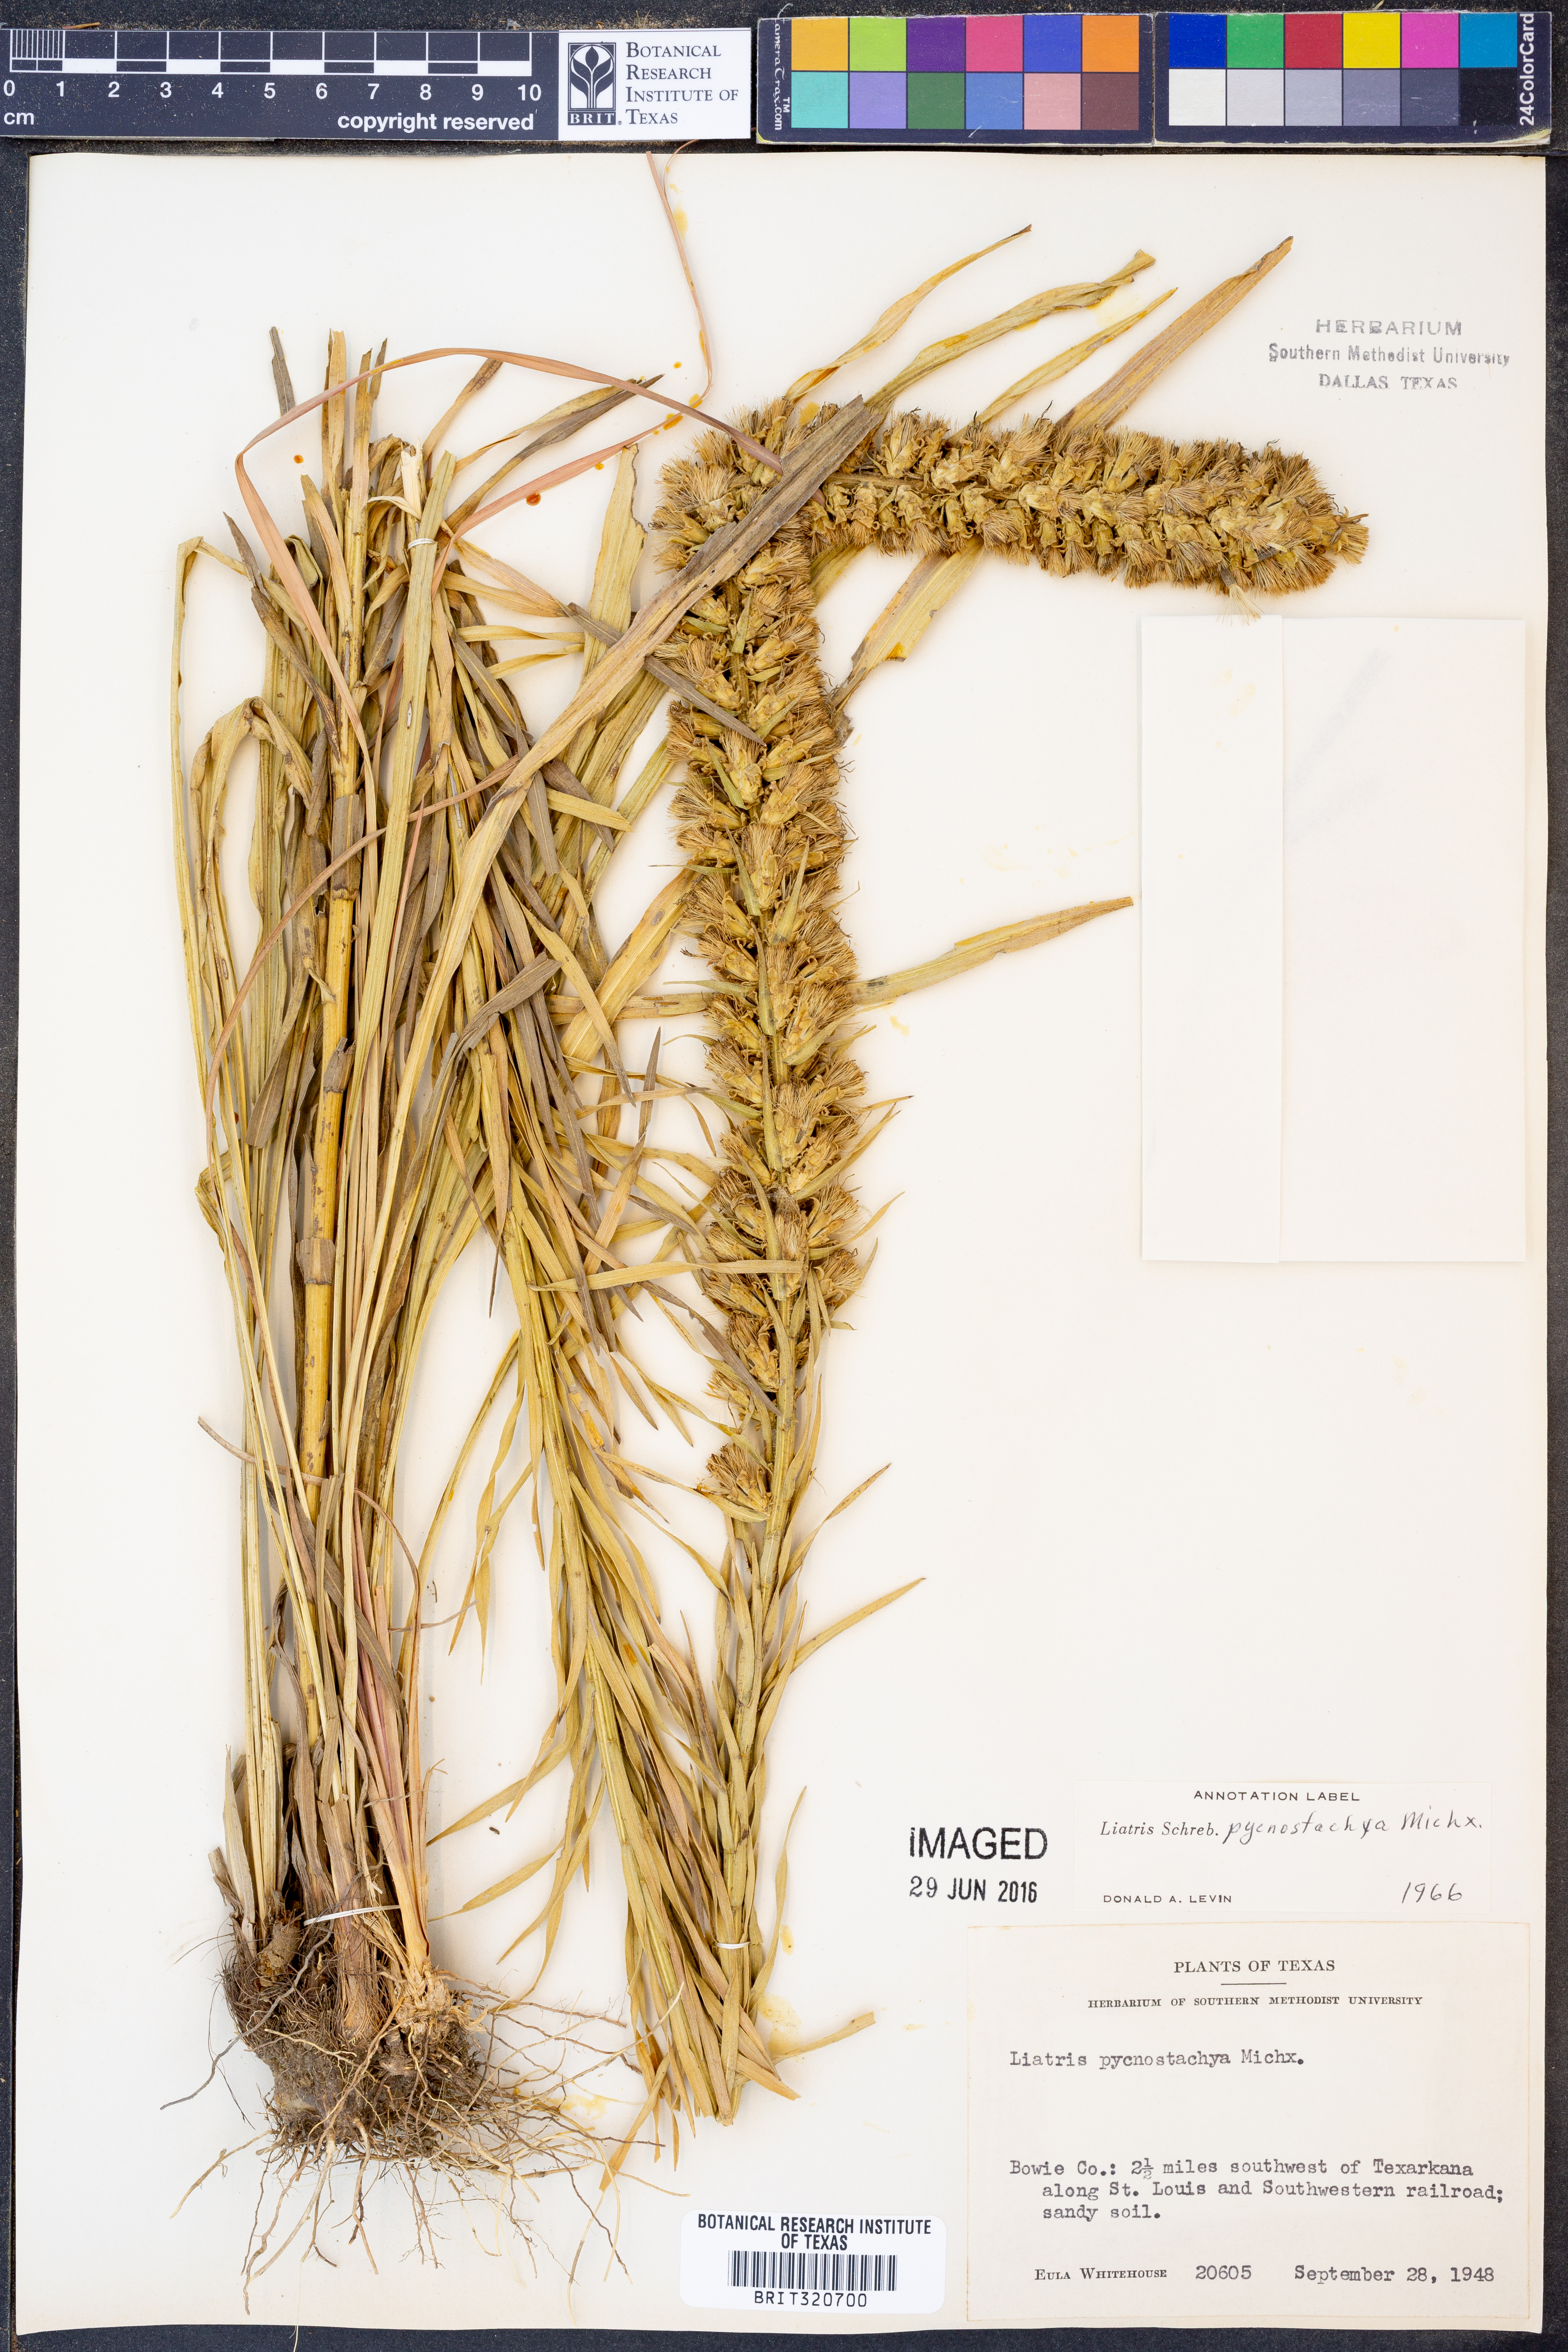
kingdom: Plantae
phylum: Tracheophyta
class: Magnoliopsida
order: Asterales
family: Asteraceae
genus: Liatris
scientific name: Liatris pycnostachya
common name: Cattail gayfeather
